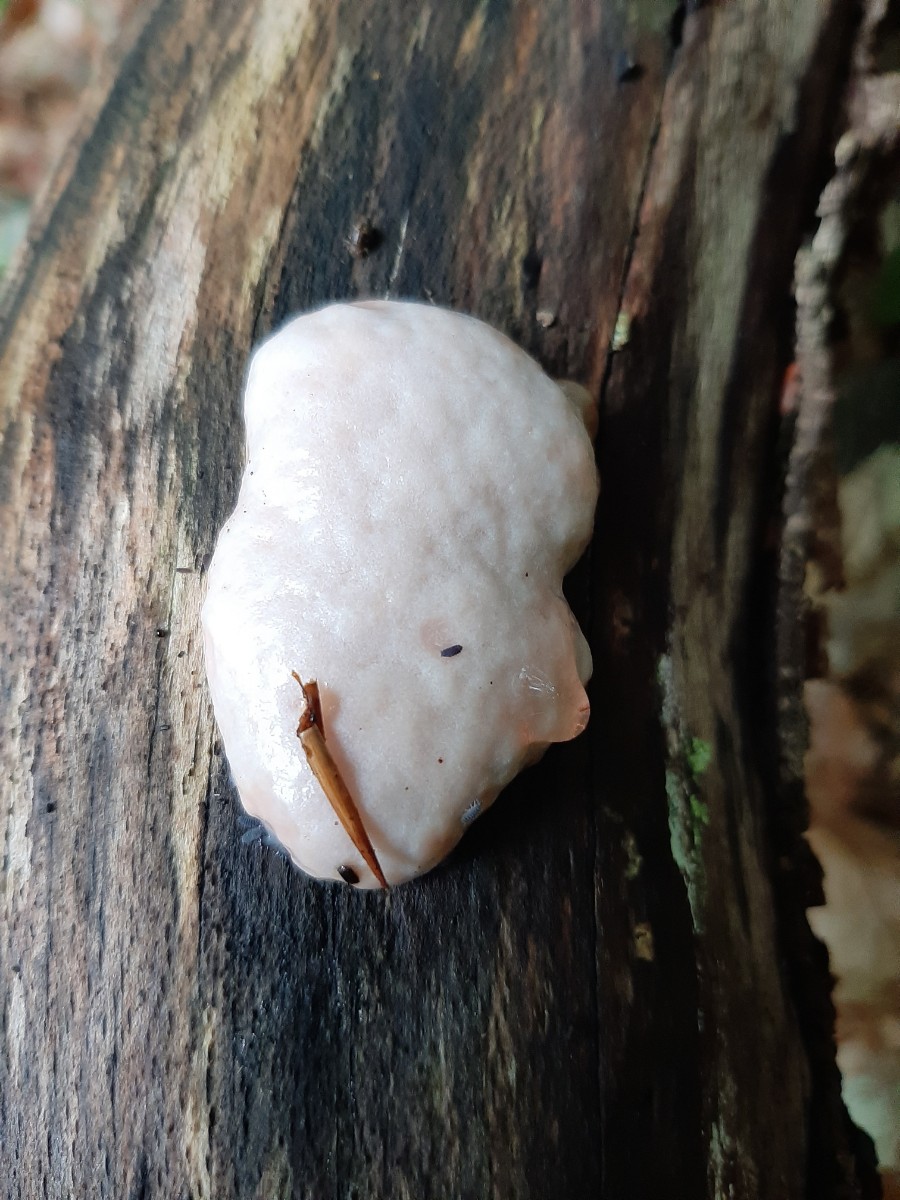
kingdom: Protozoa
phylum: Mycetozoa
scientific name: Mycetozoa
